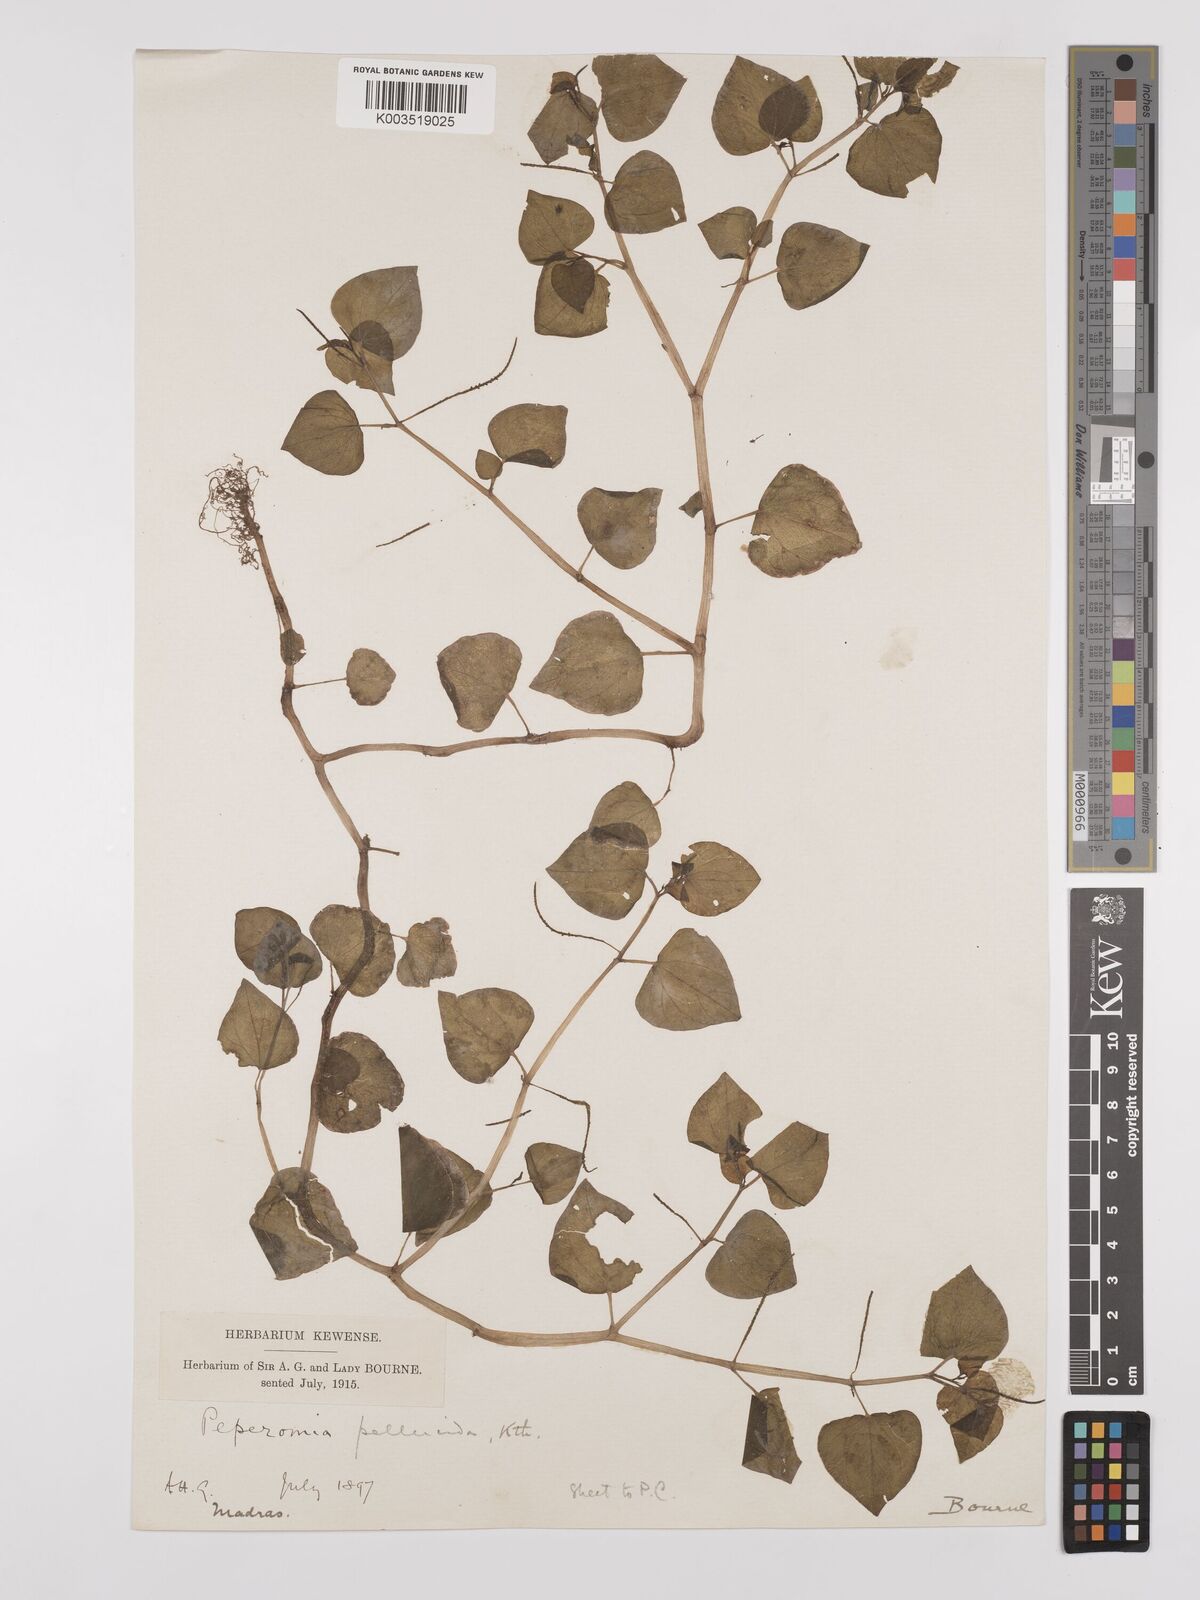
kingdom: Plantae
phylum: Tracheophyta
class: Magnoliopsida
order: Piperales
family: Piperaceae
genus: Peperomia
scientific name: Peperomia pellucida
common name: Man to man
